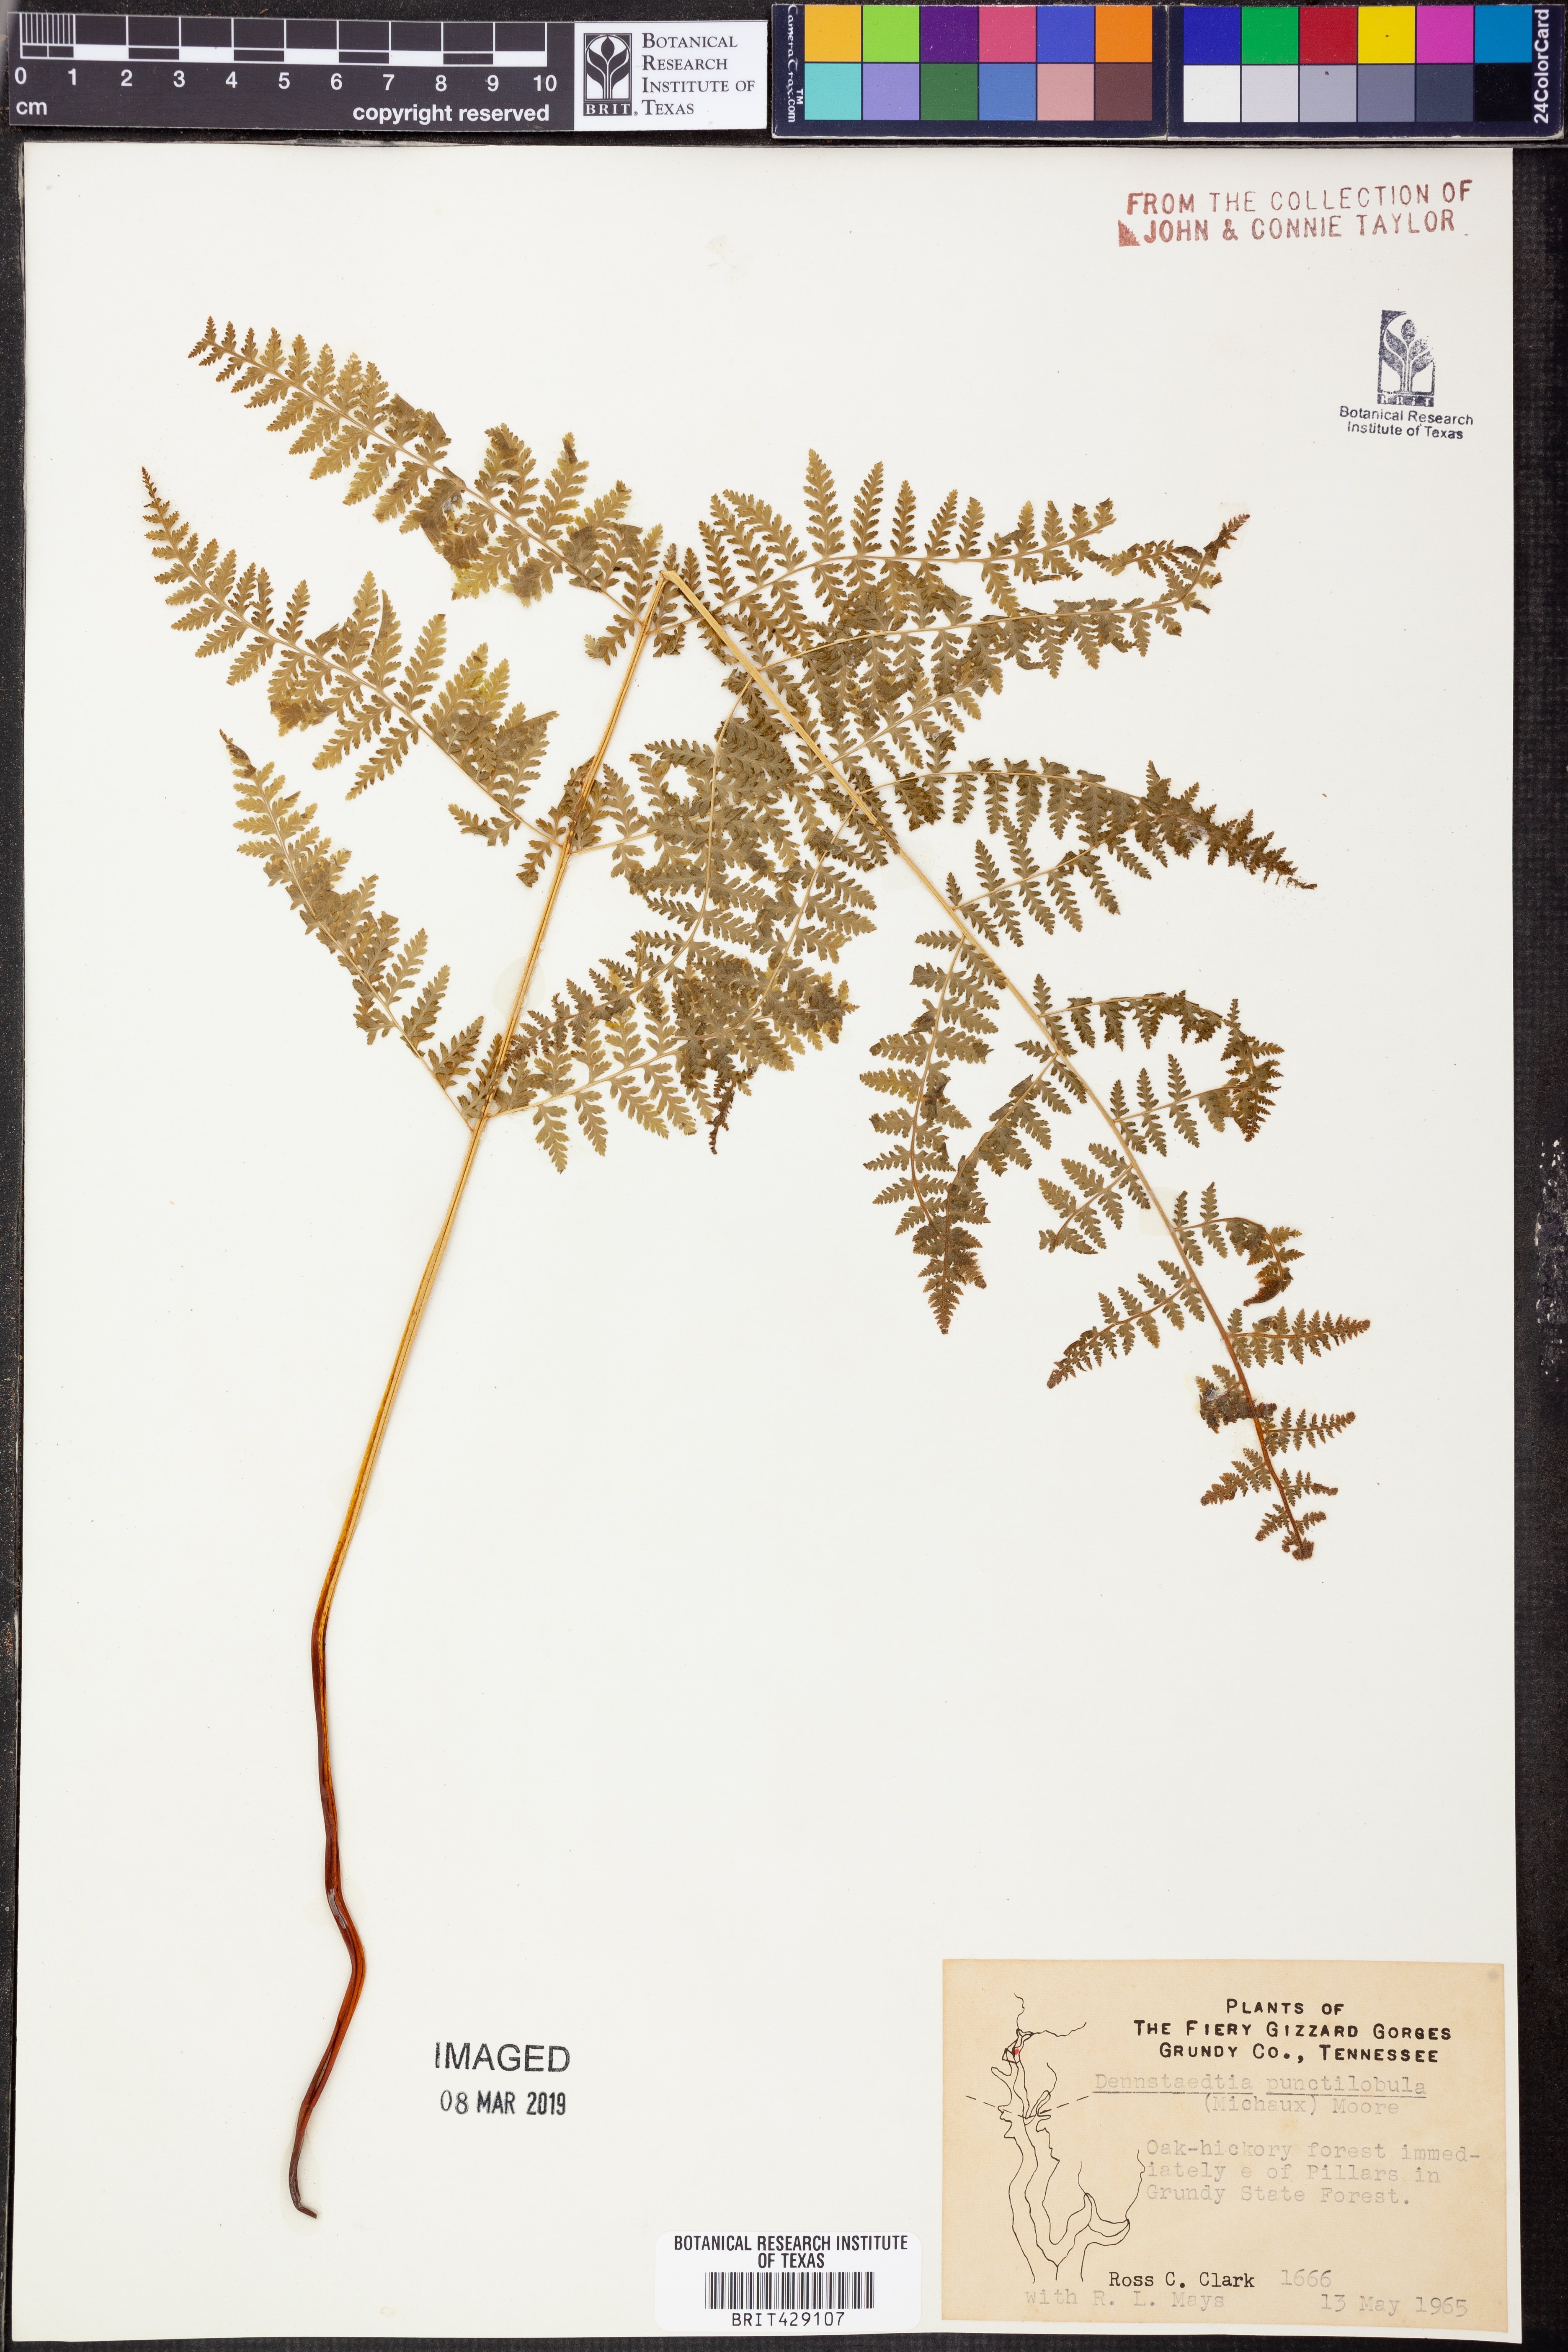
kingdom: Plantae
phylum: Tracheophyta
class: Polypodiopsida
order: Polypodiales
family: Dennstaedtiaceae
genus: Sitobolium
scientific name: Sitobolium punctilobum
